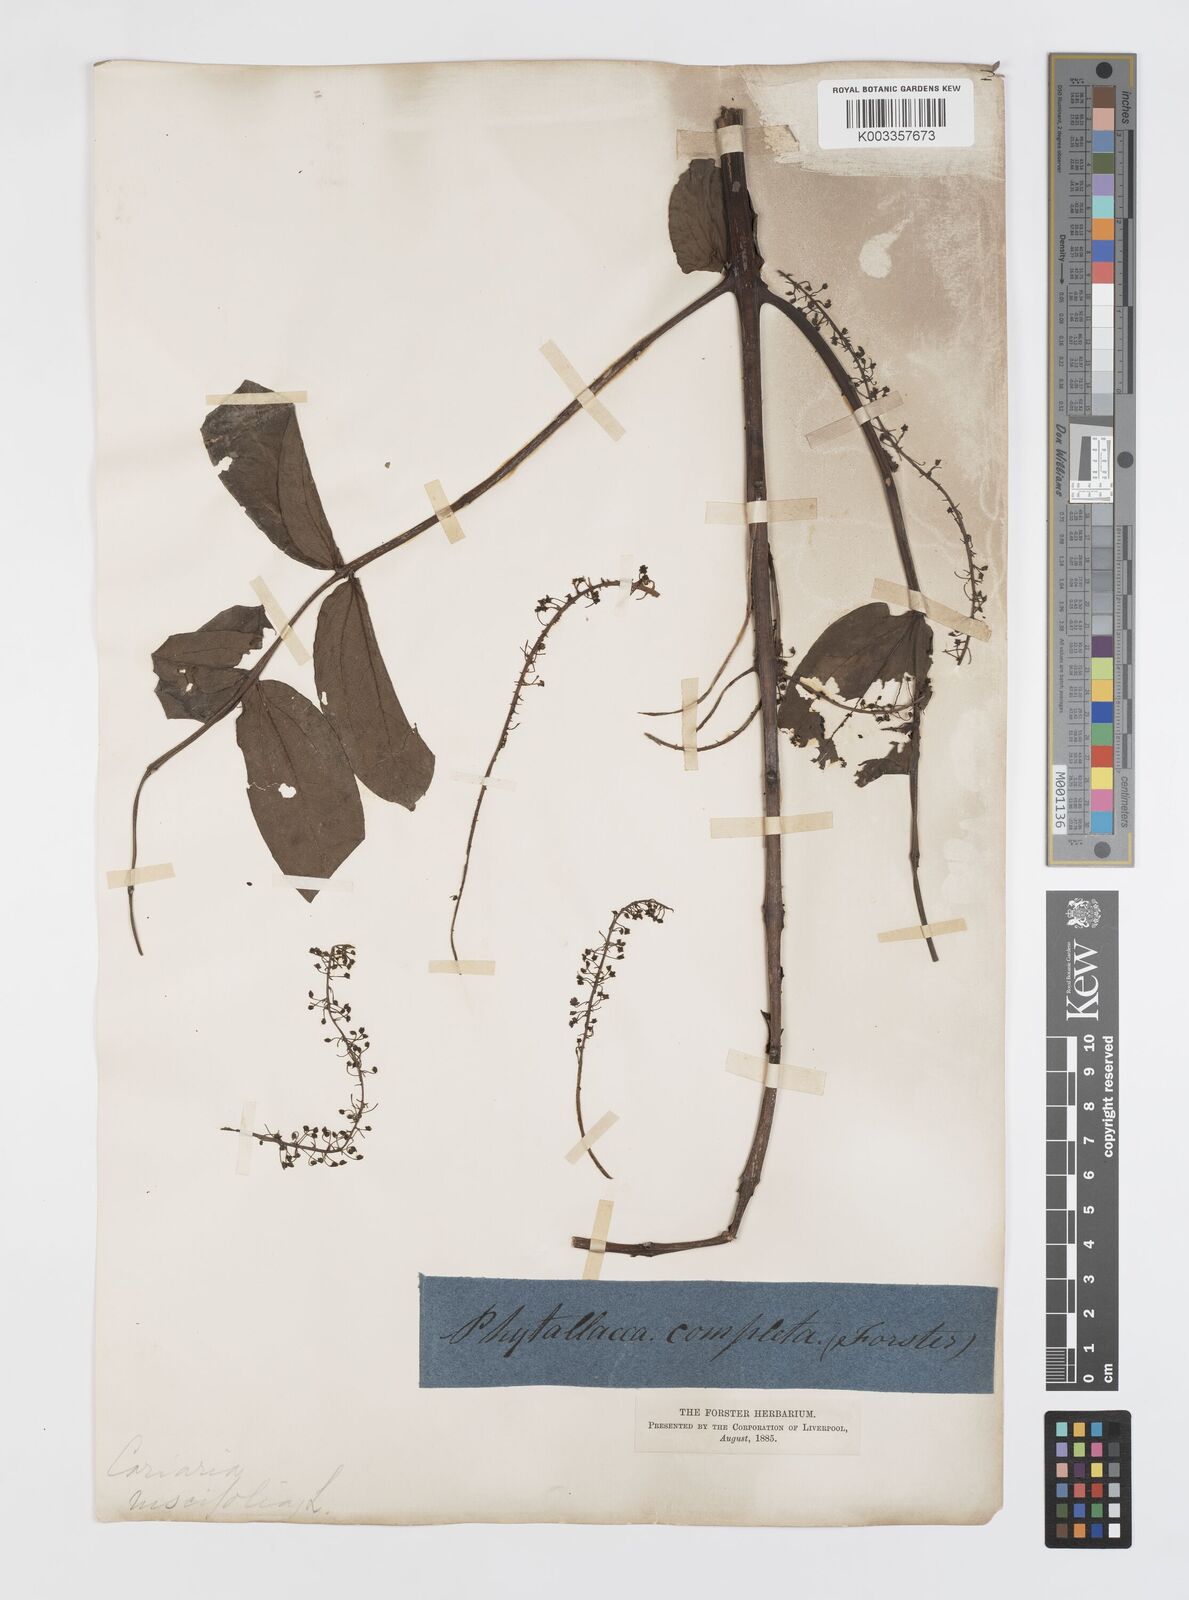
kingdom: Plantae
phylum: Tracheophyta
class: Magnoliopsida
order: Cucurbitales
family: Coriariaceae
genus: Coriaria
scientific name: Coriaria ruscifolia
